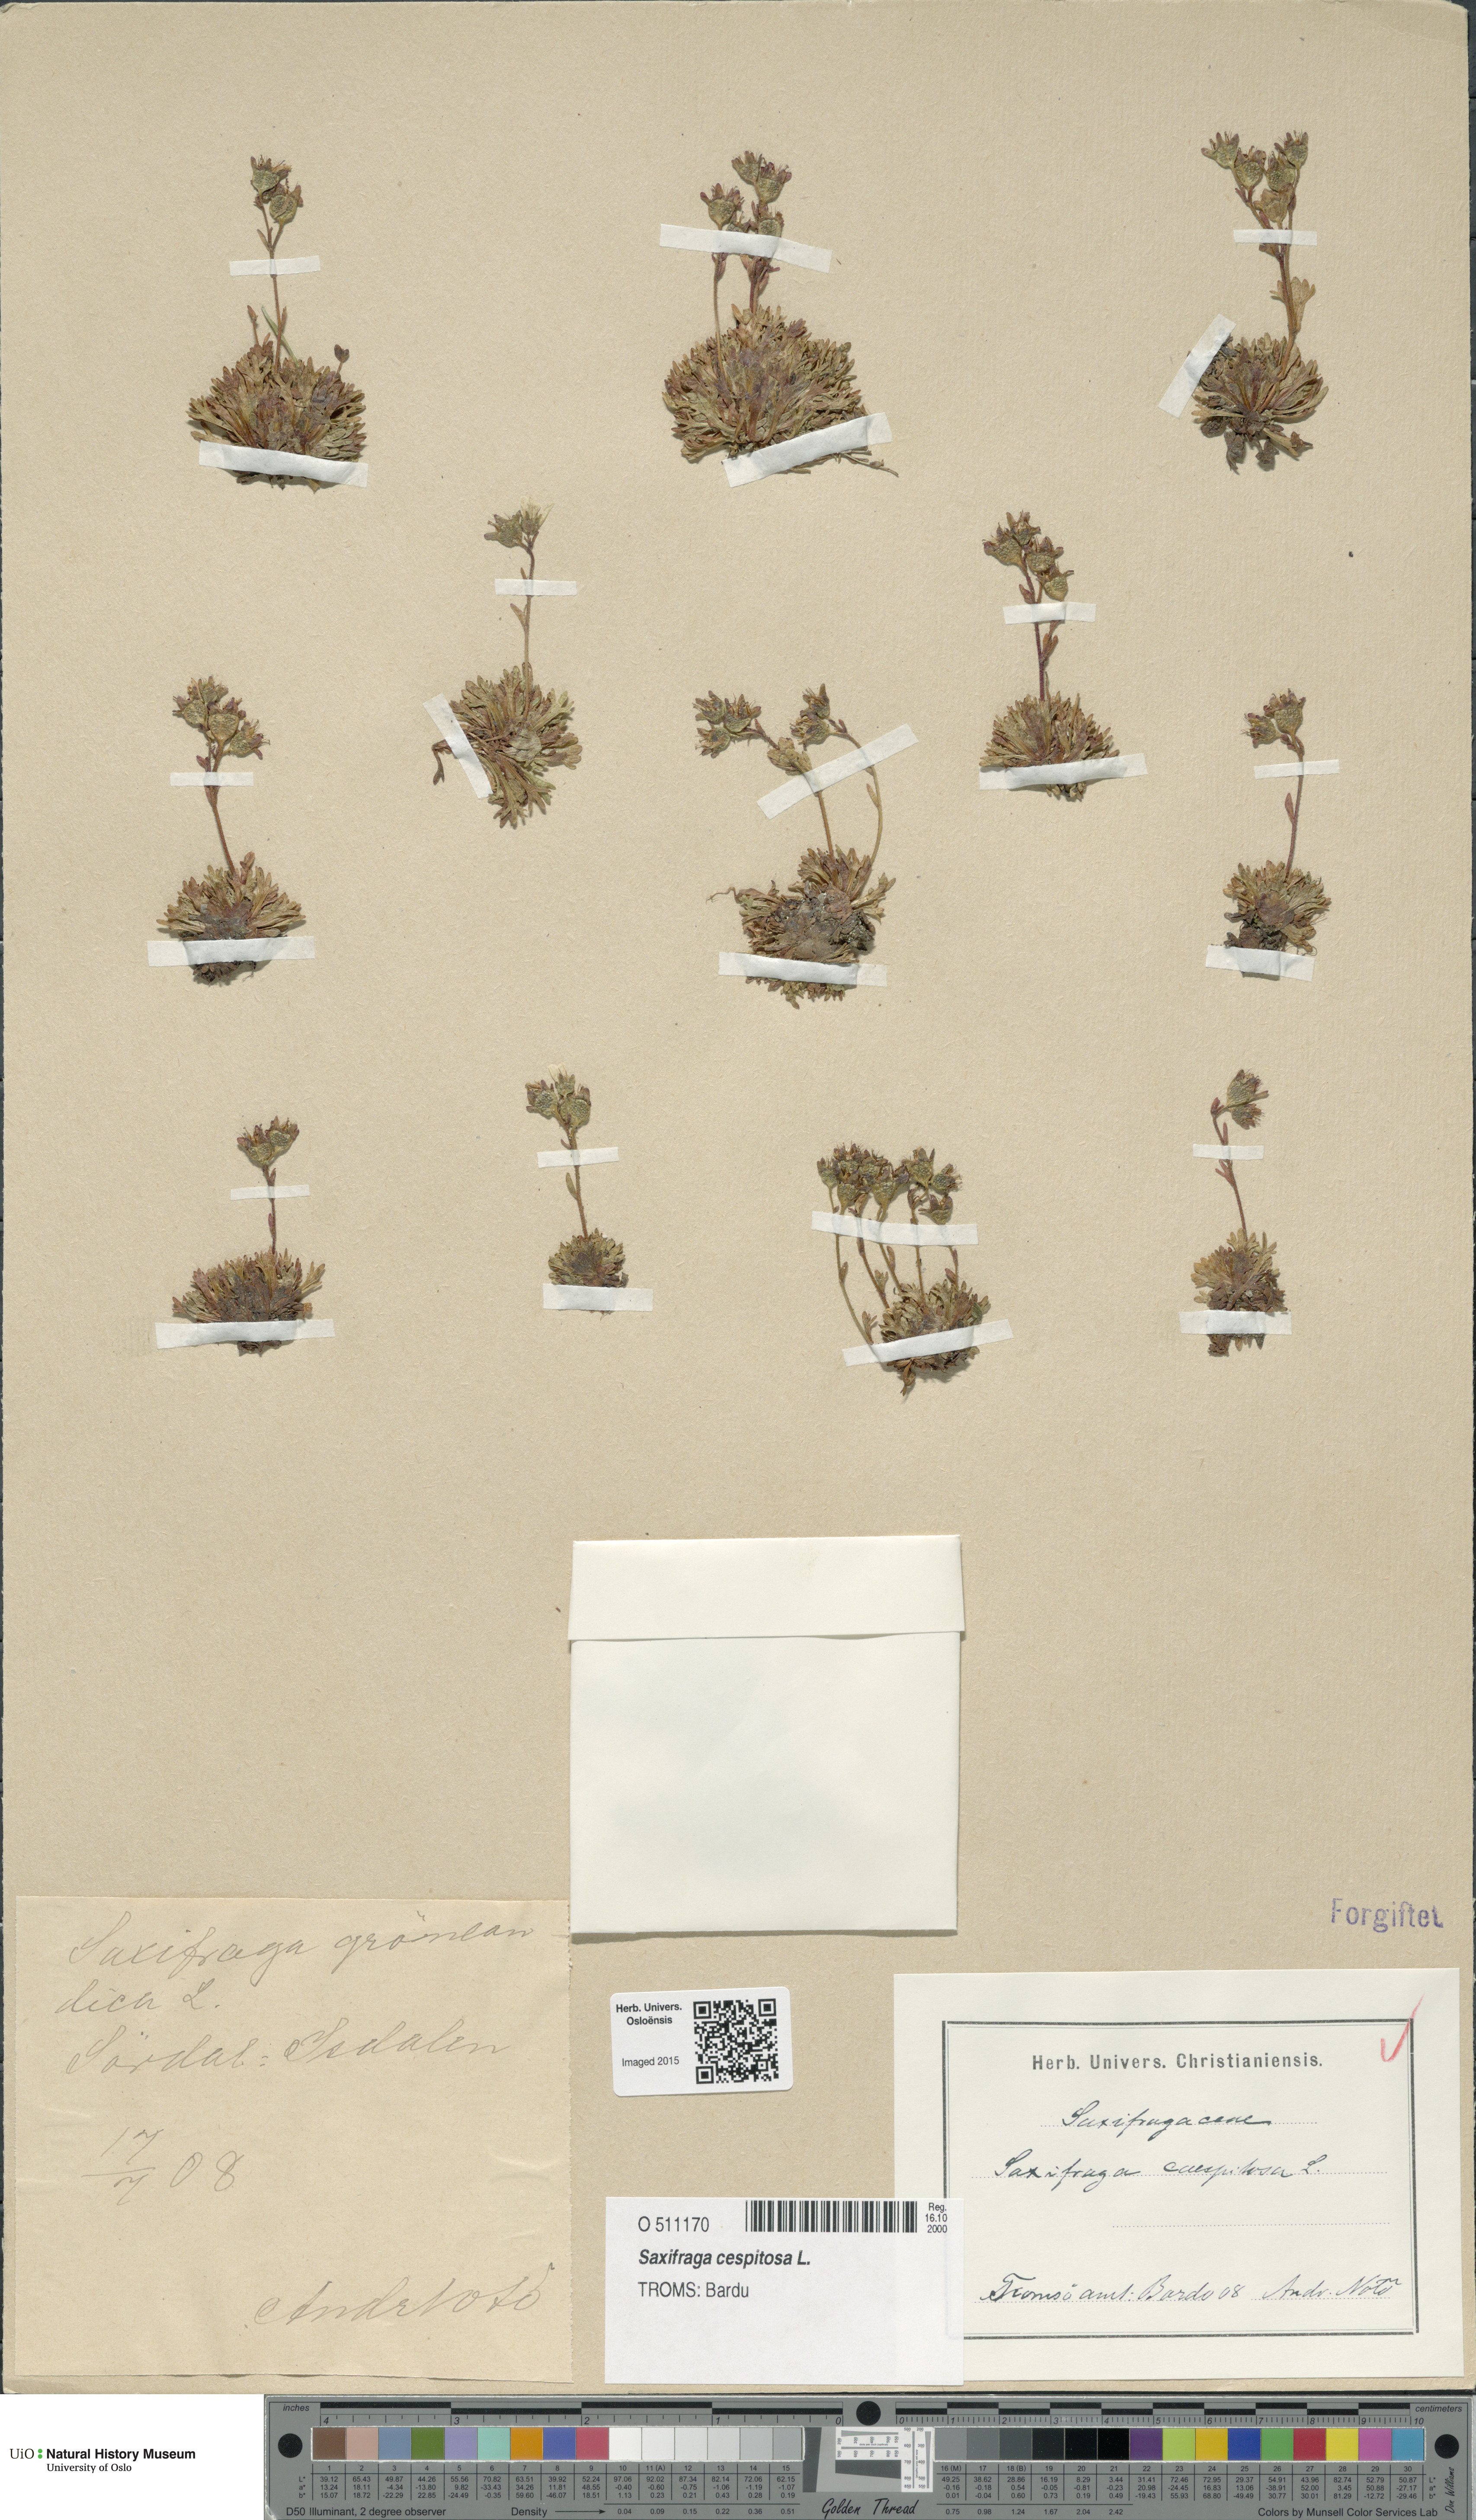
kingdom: Plantae
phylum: Tracheophyta
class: Magnoliopsida
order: Saxifragales
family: Saxifragaceae
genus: Saxifraga
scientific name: Saxifraga cespitosa
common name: Tufted saxifrage
